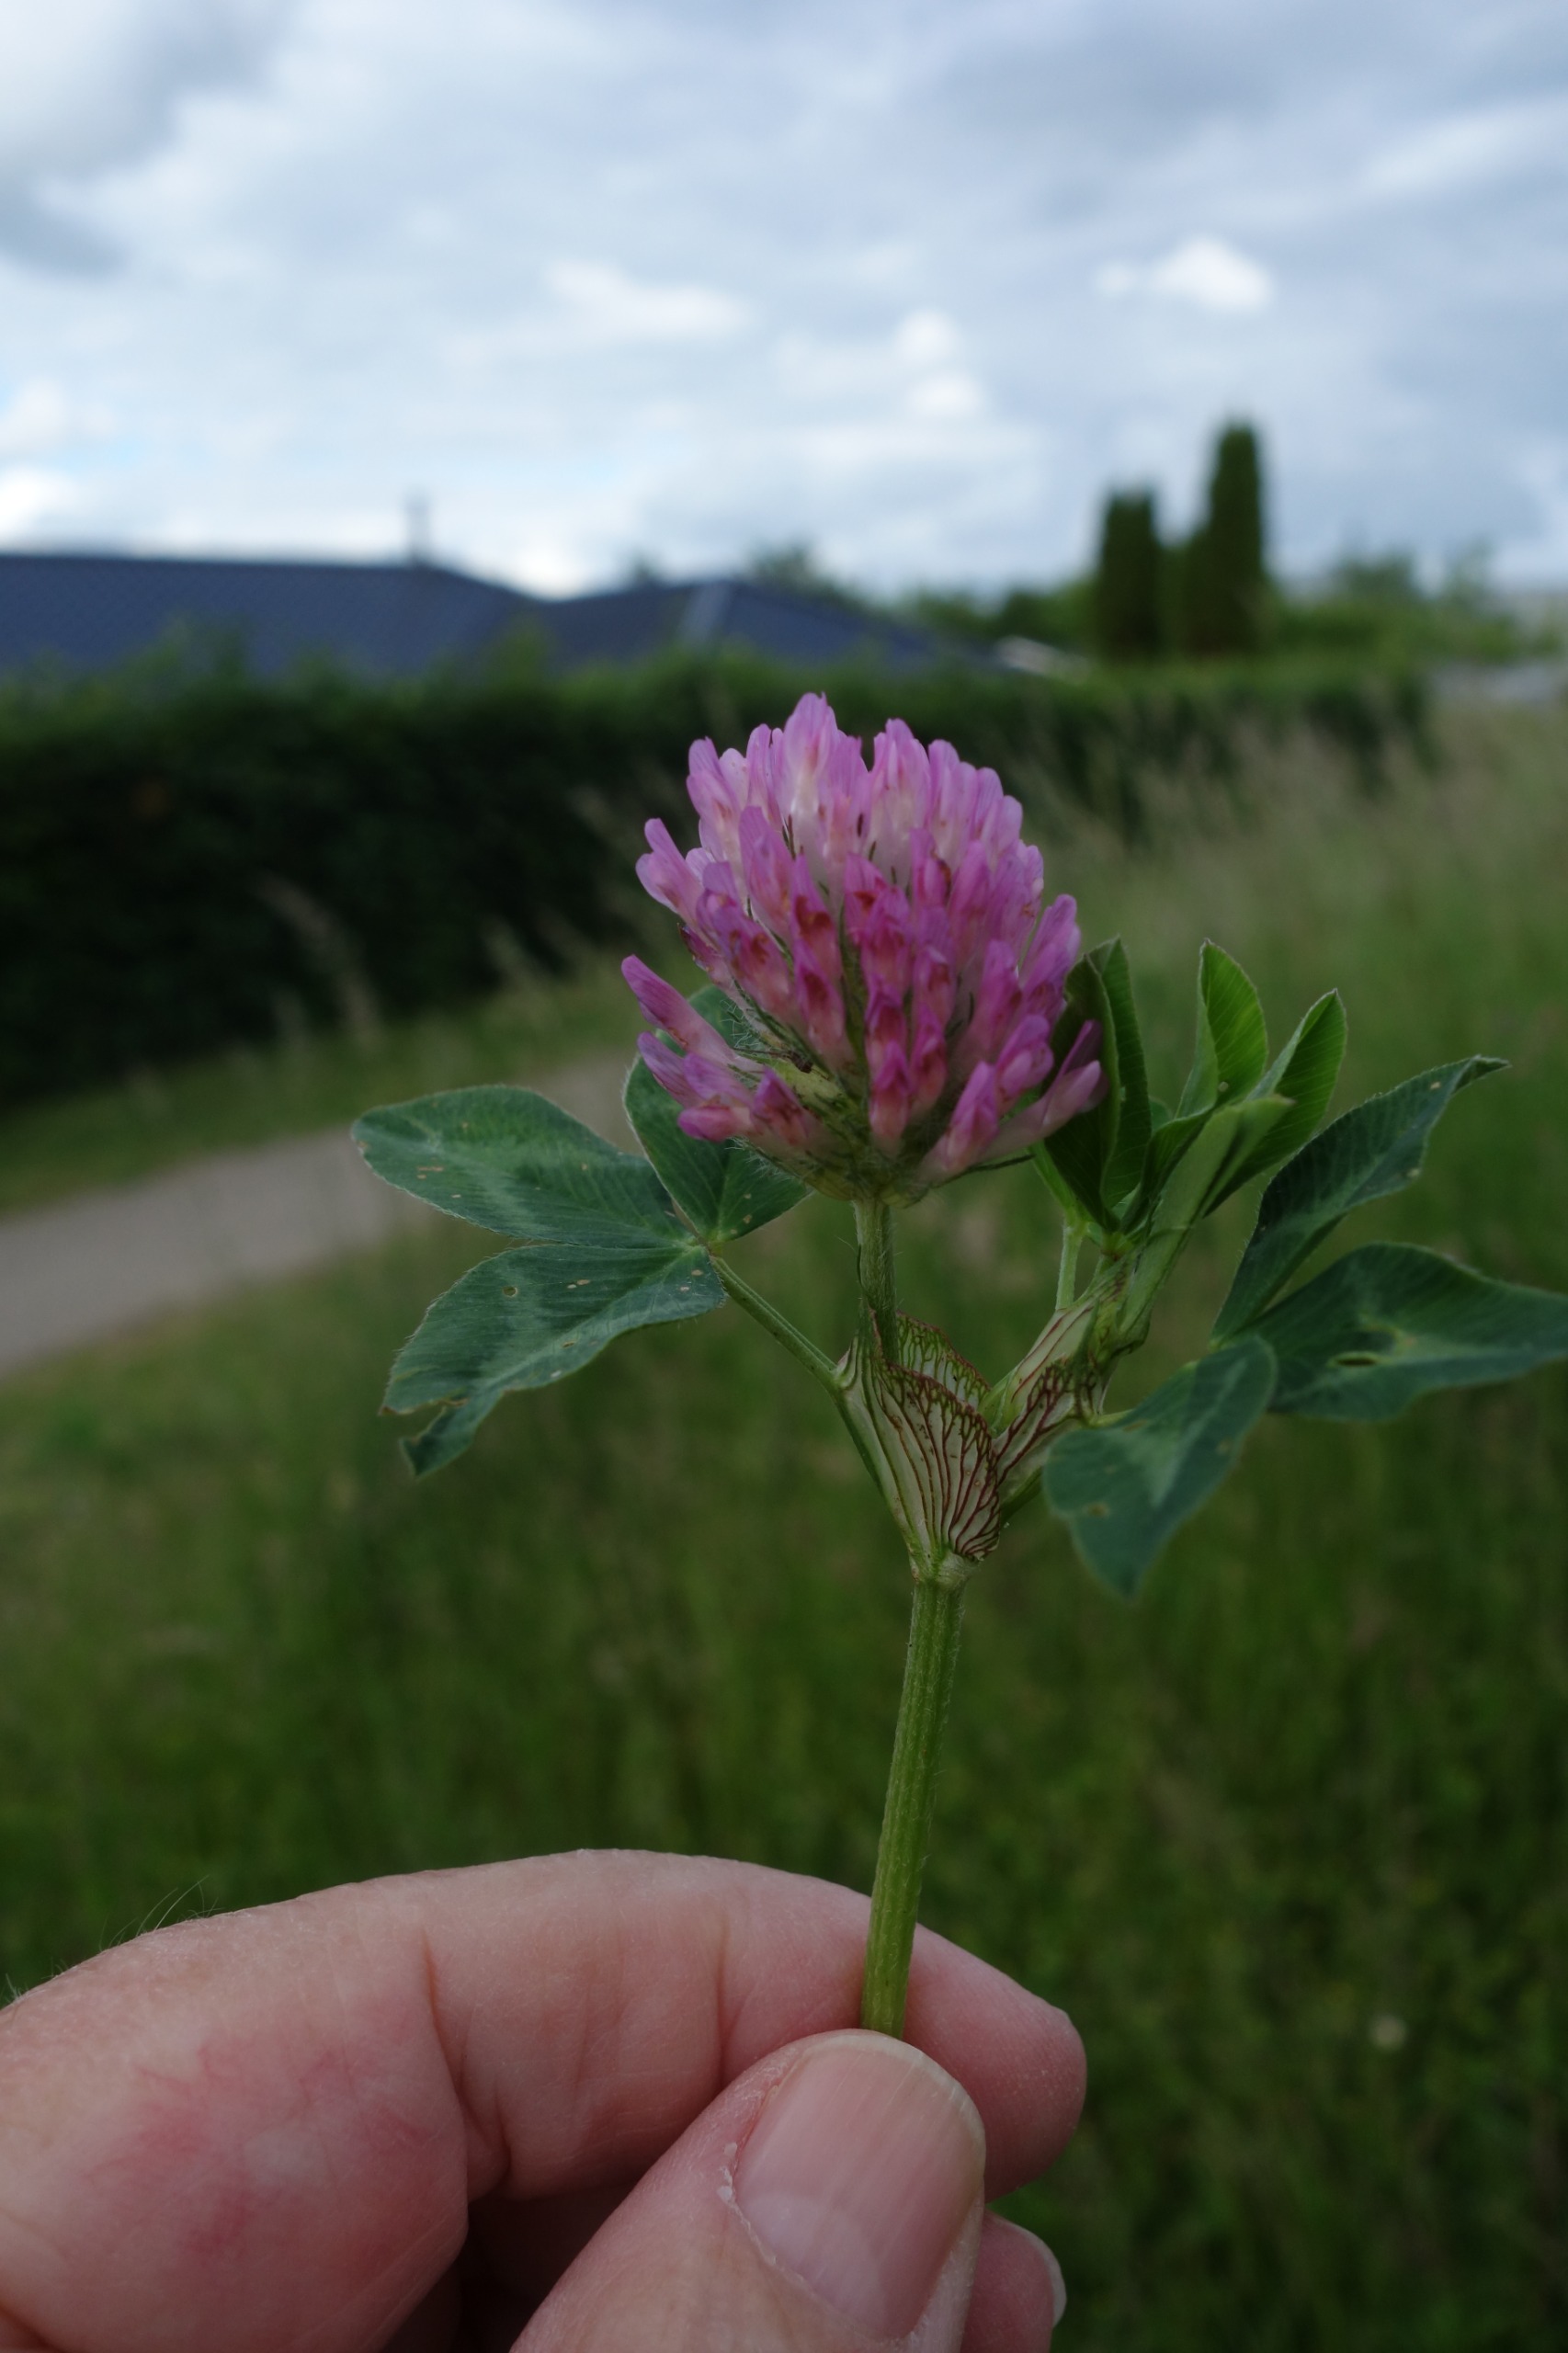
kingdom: Plantae
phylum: Tracheophyta
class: Magnoliopsida
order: Fabales
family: Fabaceae
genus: Trifolium
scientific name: Trifolium pratense
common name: Rød-kløver
